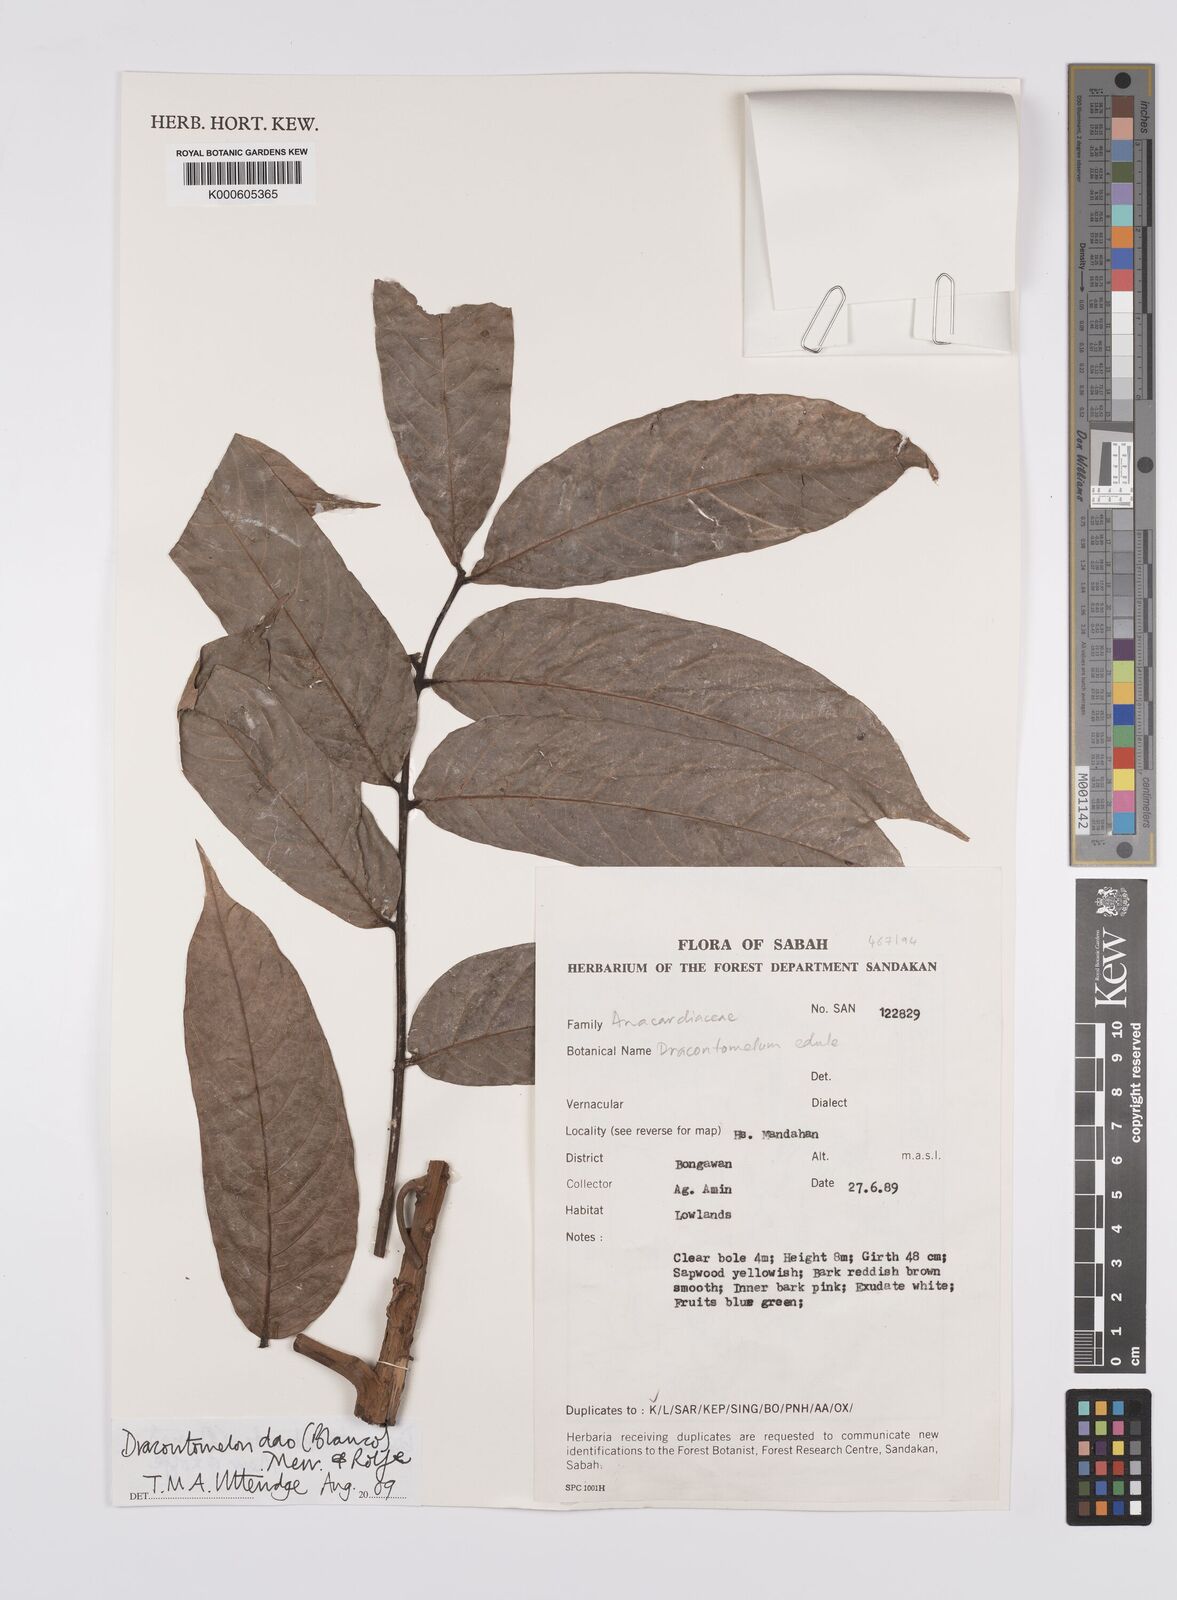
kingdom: Plantae
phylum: Tracheophyta
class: Magnoliopsida
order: Sapindales
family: Anacardiaceae
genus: Dracontomelon
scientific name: Dracontomelon dao
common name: Argus pheasant-tree
